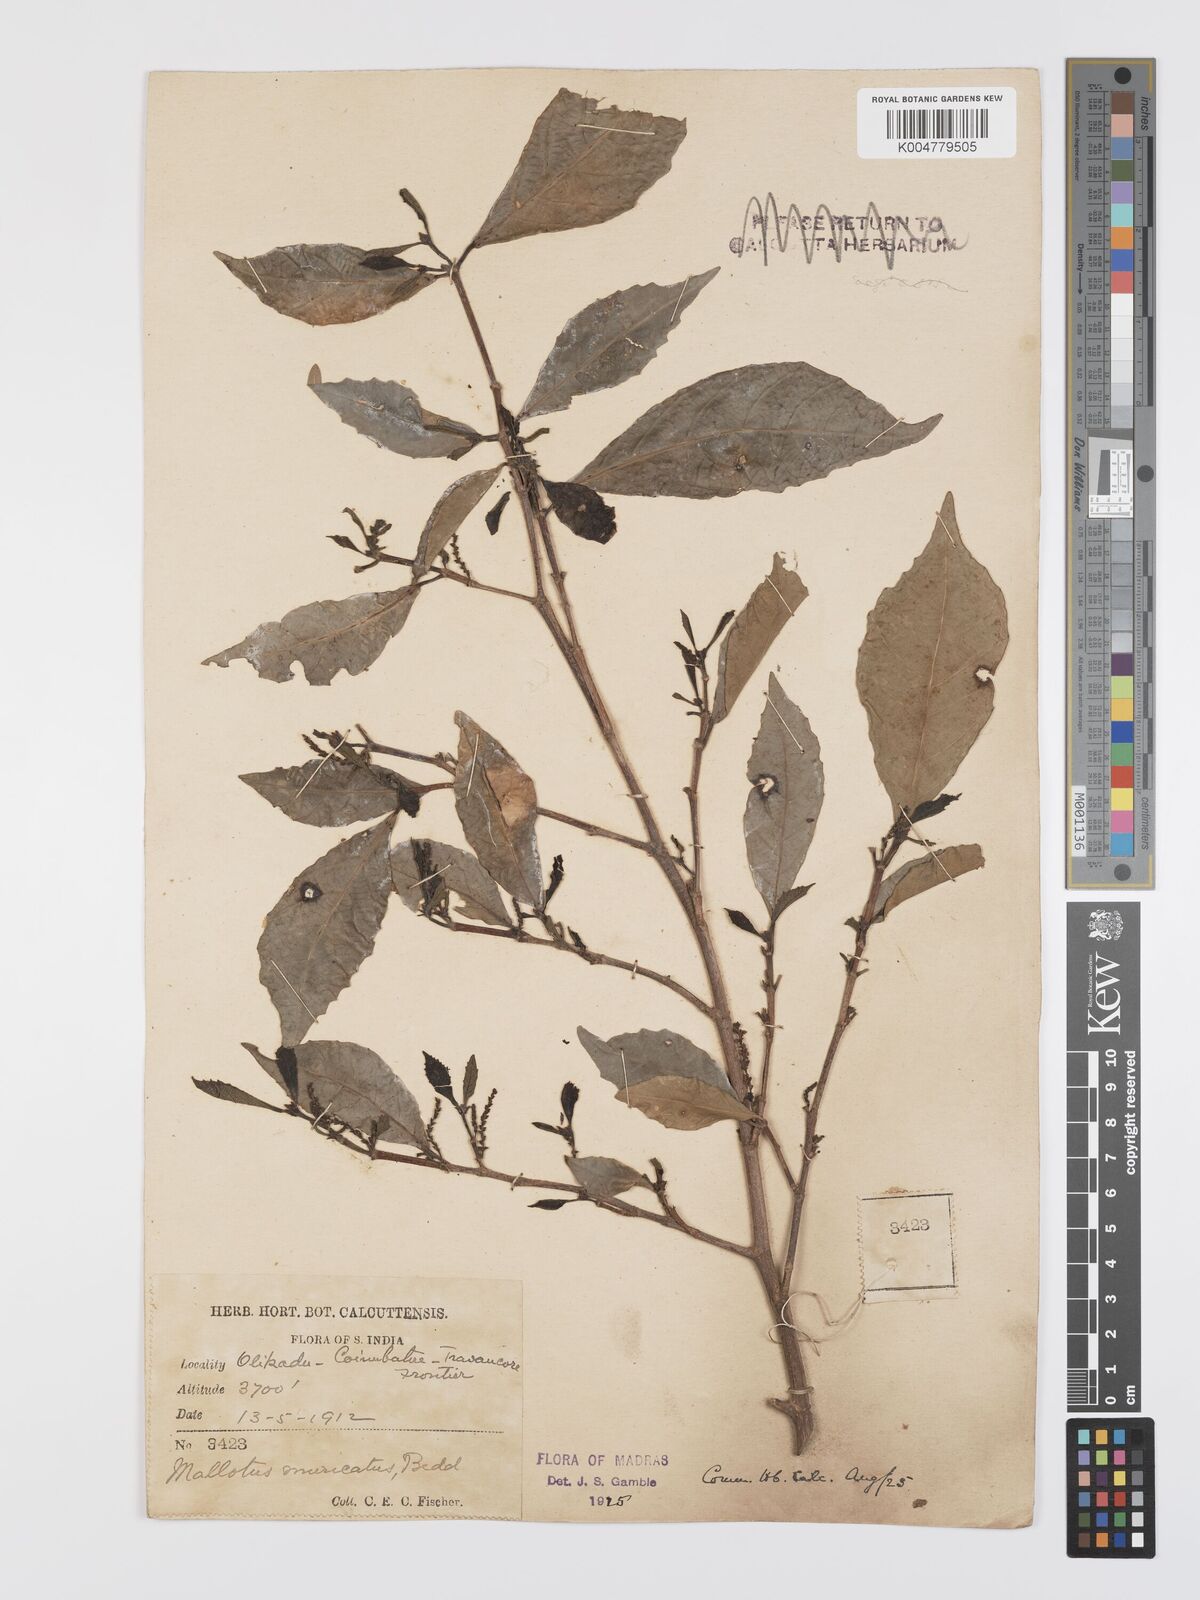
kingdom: Plantae
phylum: Tracheophyta
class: Magnoliopsida
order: Malpighiales
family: Euphorbiaceae
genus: Mallotus
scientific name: Mallotus resinosus
